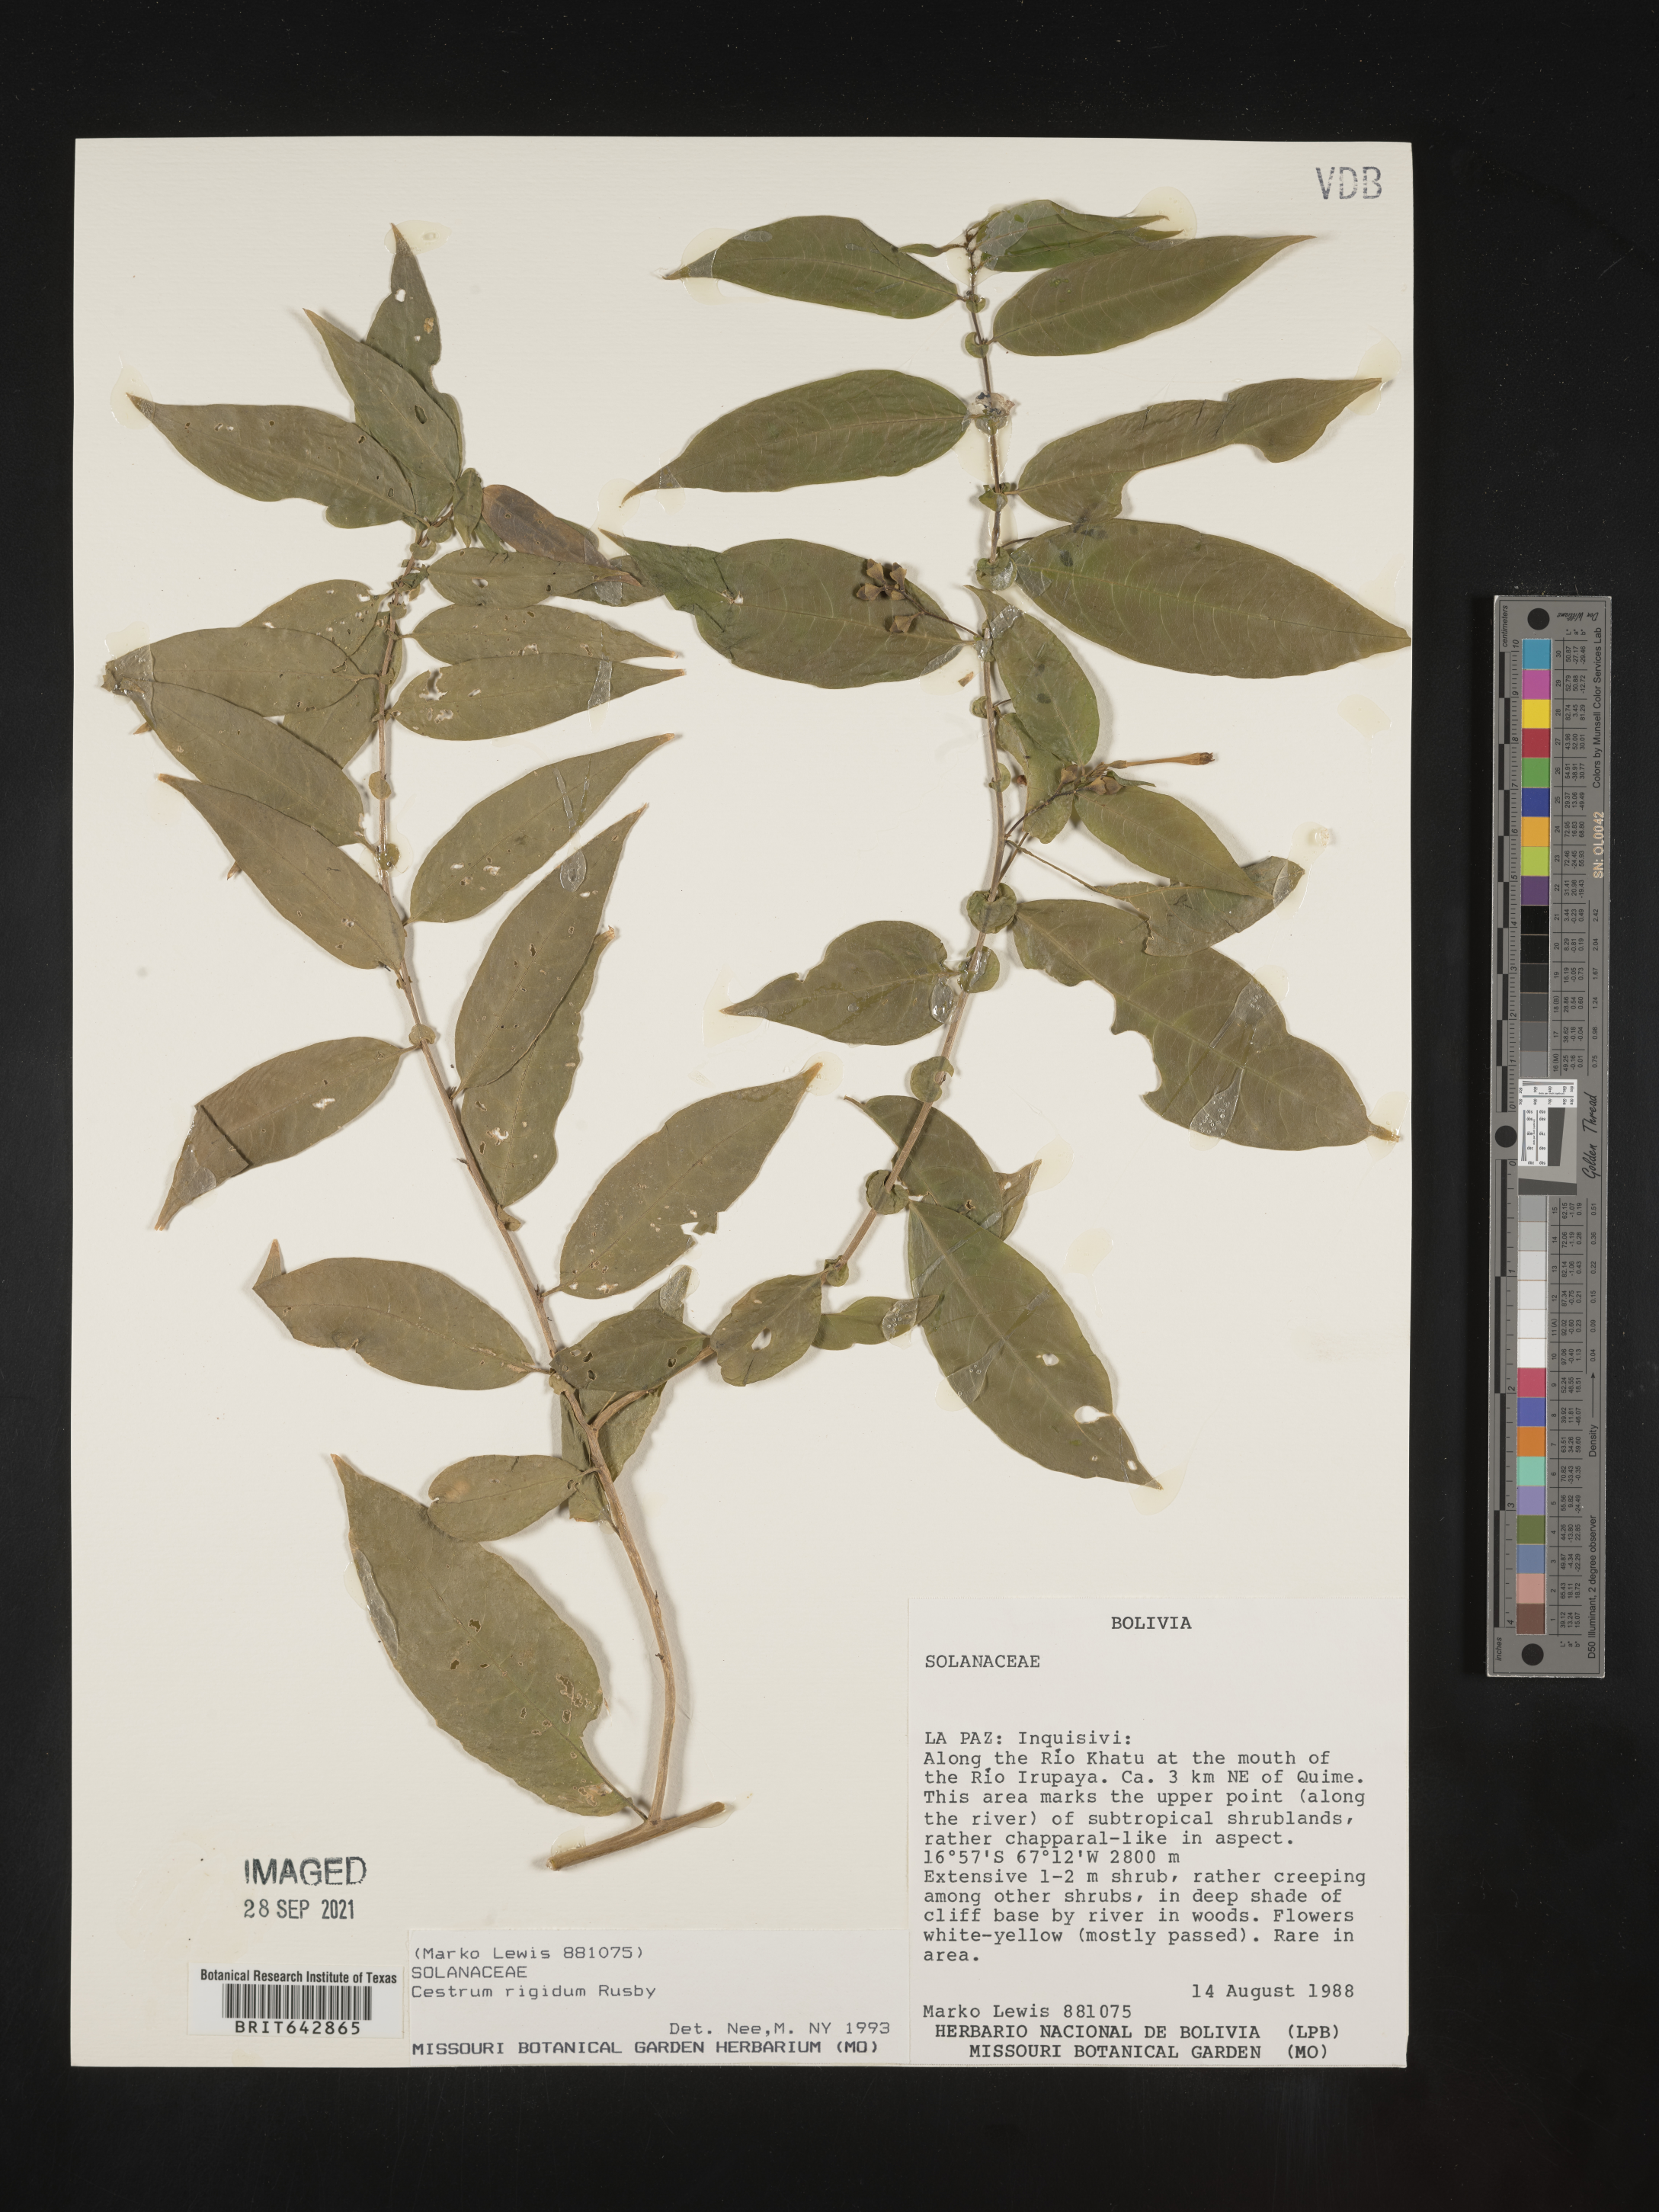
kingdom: Plantae
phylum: Tracheophyta
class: Magnoliopsida
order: Solanales
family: Solanaceae
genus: Cestrum
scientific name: Cestrum
